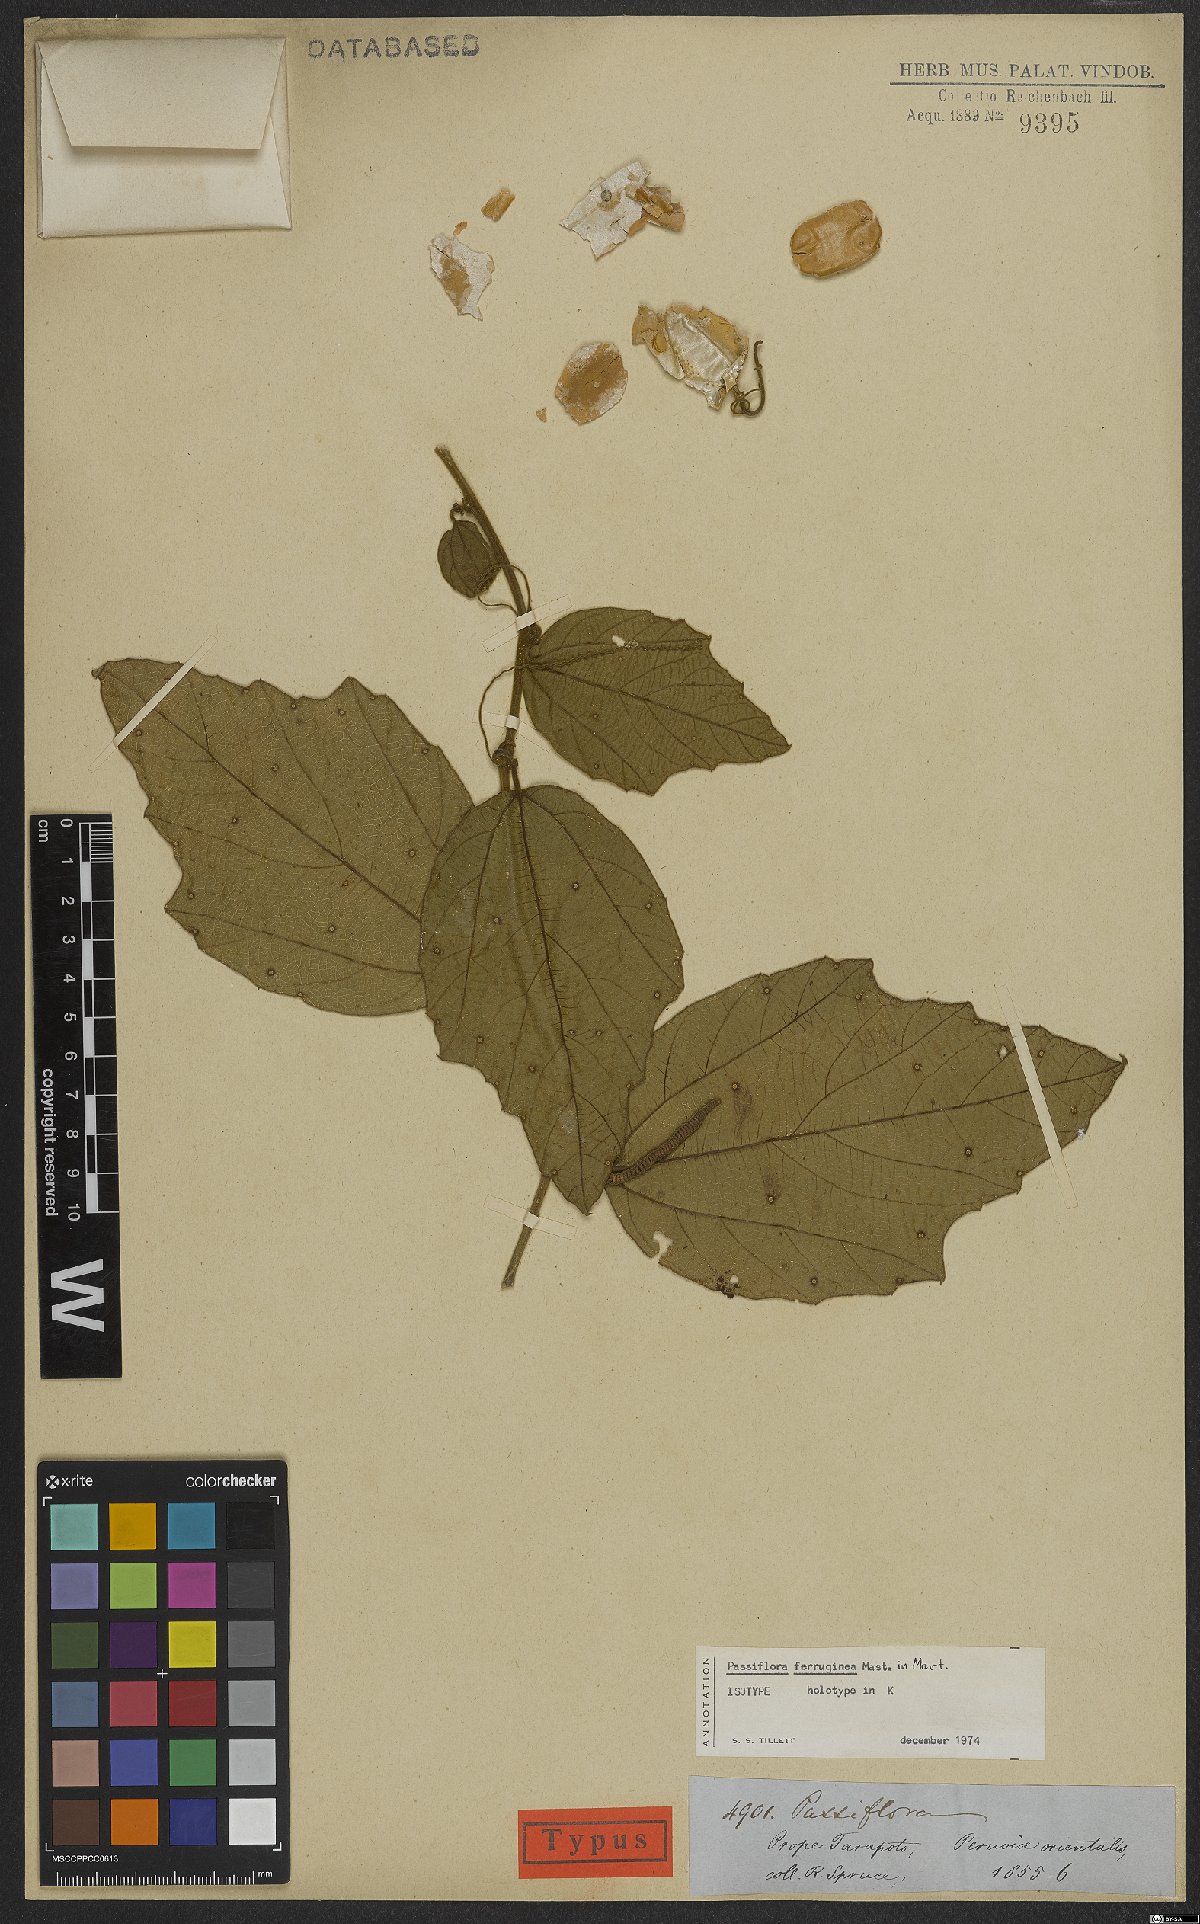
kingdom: Plantae
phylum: Tracheophyta
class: Magnoliopsida
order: Malpighiales
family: Passifloraceae
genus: Passiflora
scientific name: Passiflora ferruginea
